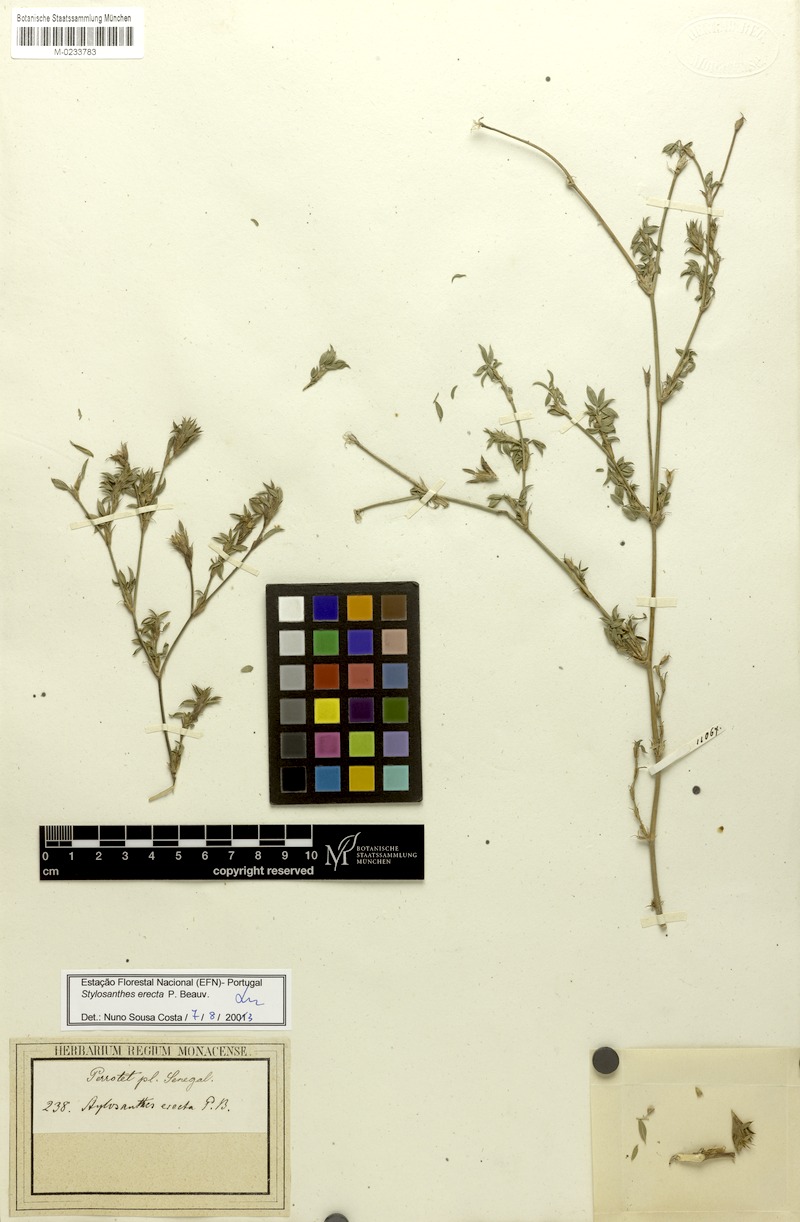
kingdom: Plantae
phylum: Tracheophyta
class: Magnoliopsida
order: Fabales
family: Fabaceae
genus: Stylosanthes
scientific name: Stylosanthes erecta
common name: Nigerian stylo
